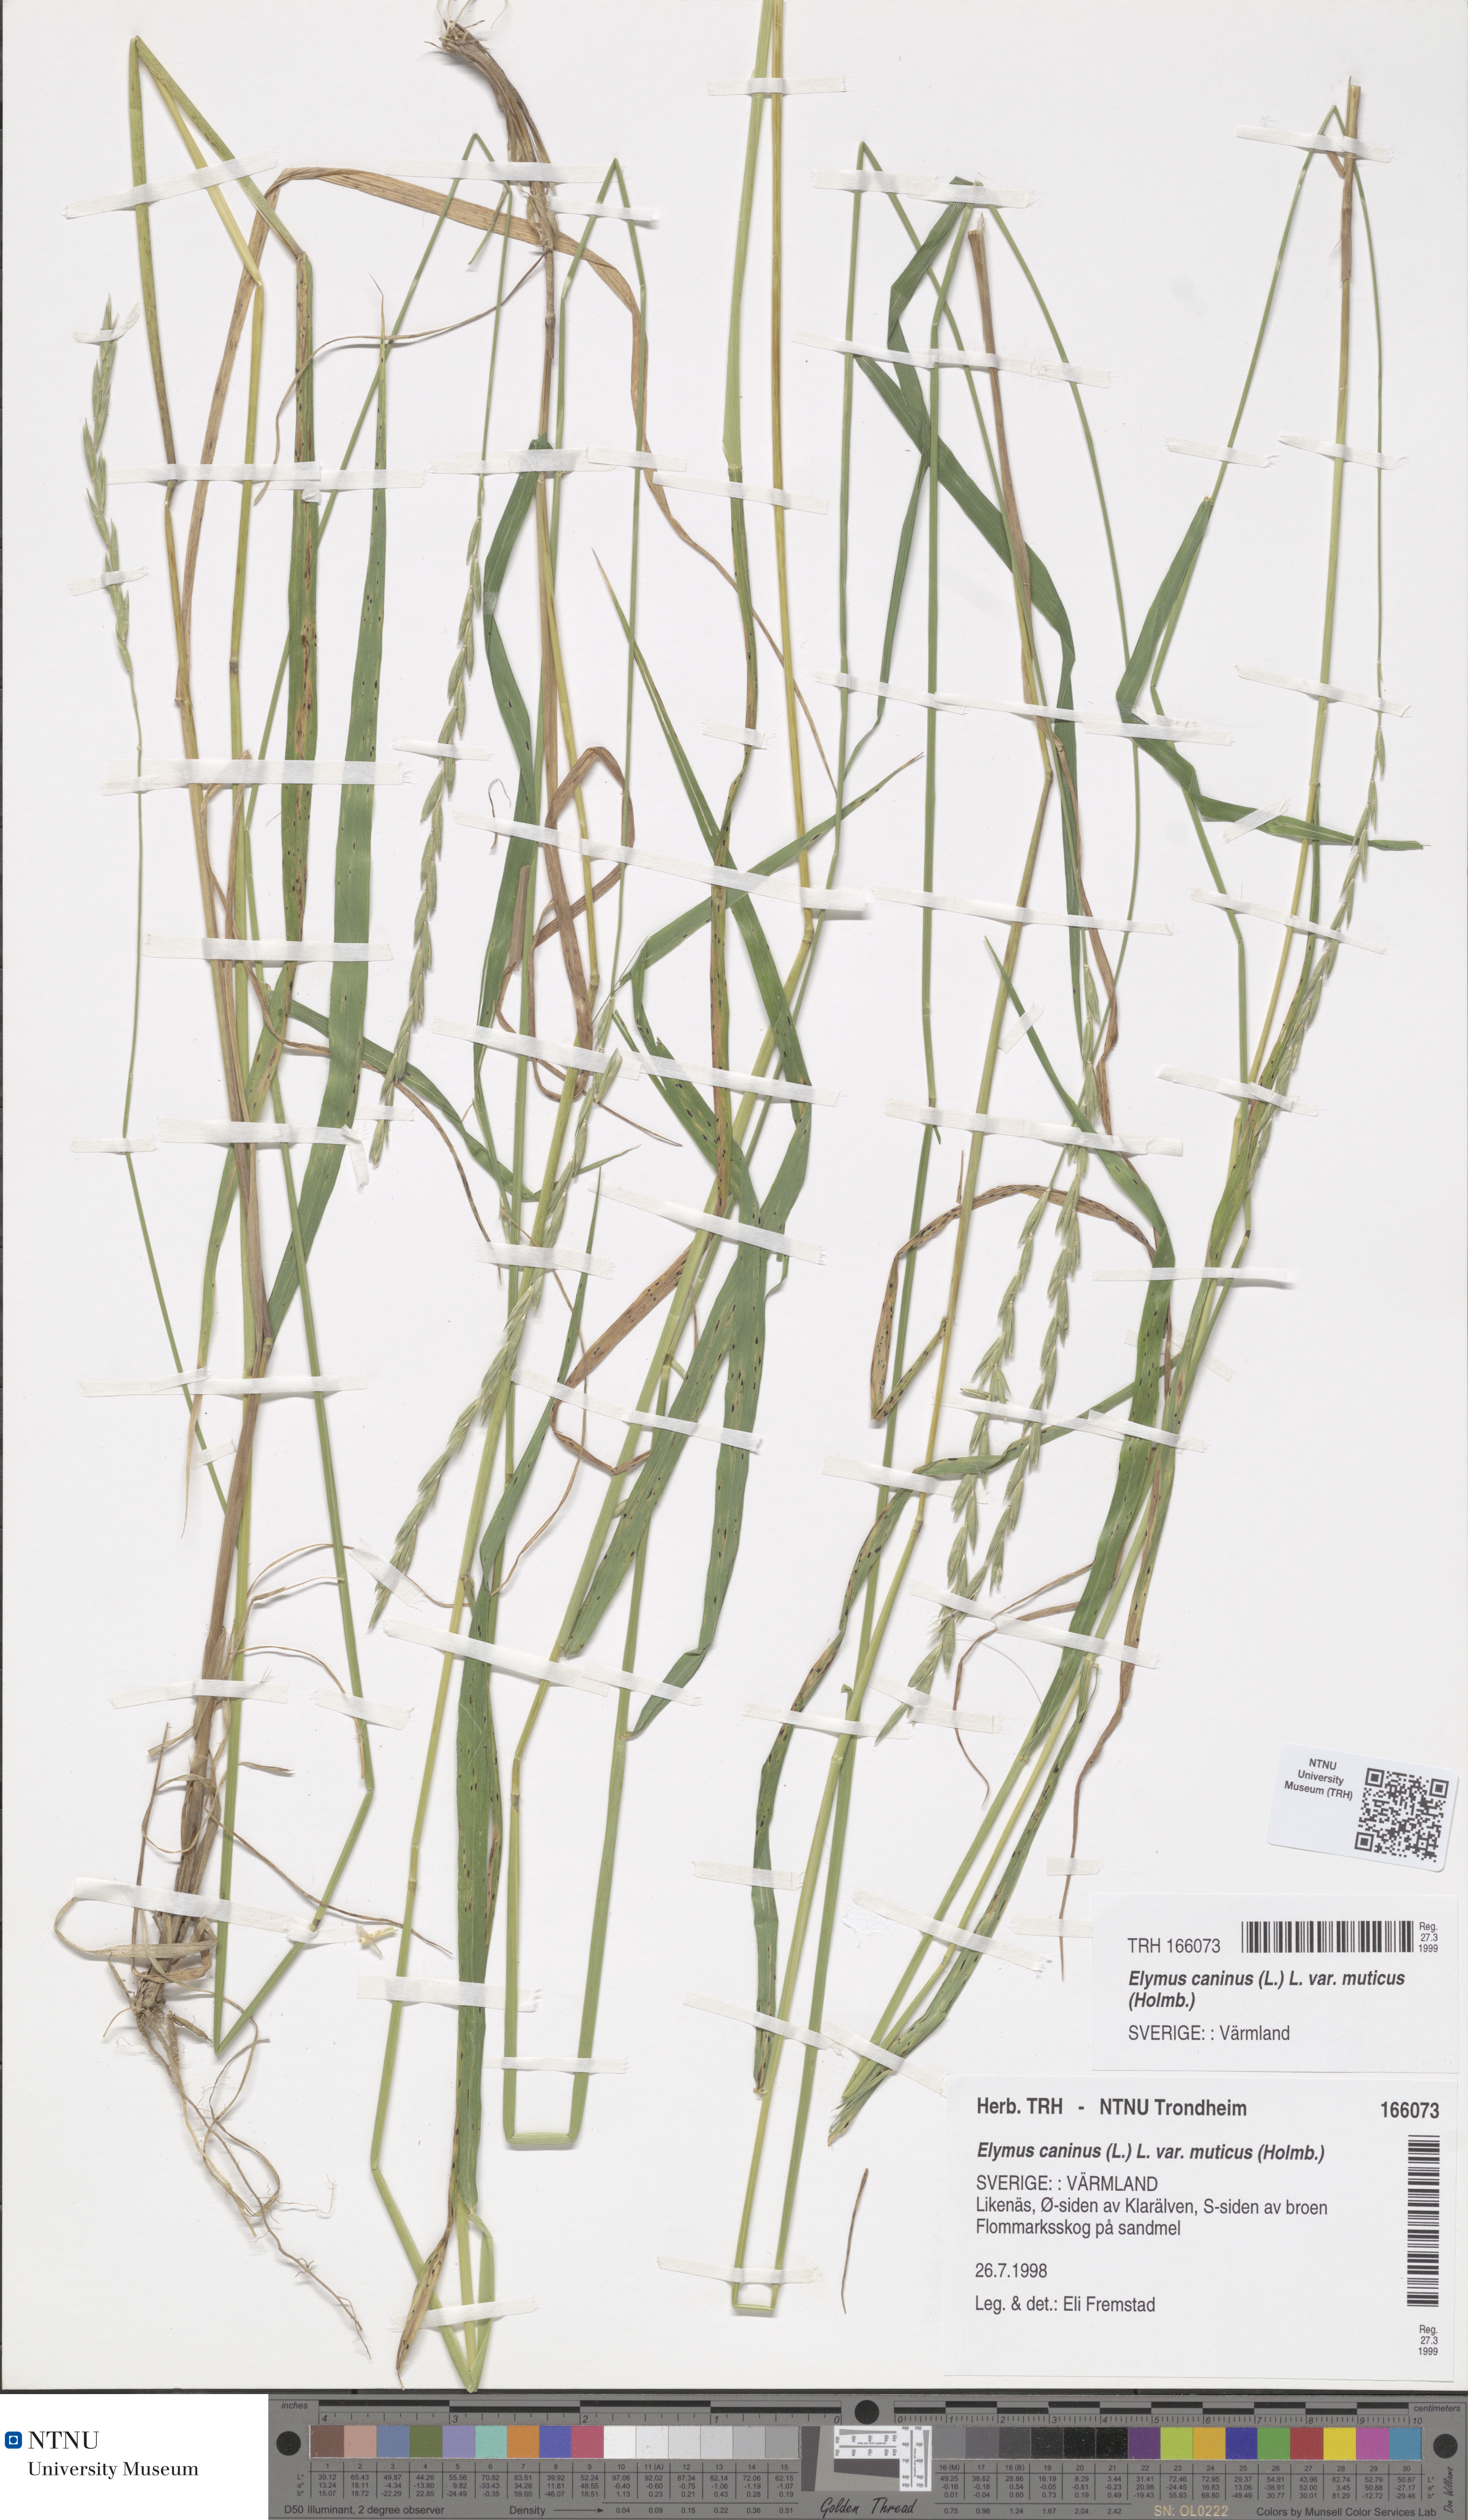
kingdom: Plantae
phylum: Tracheophyta
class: Liliopsida
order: Poales
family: Poaceae
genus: Elymus
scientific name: Elymus caninus
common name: Bearded couch
